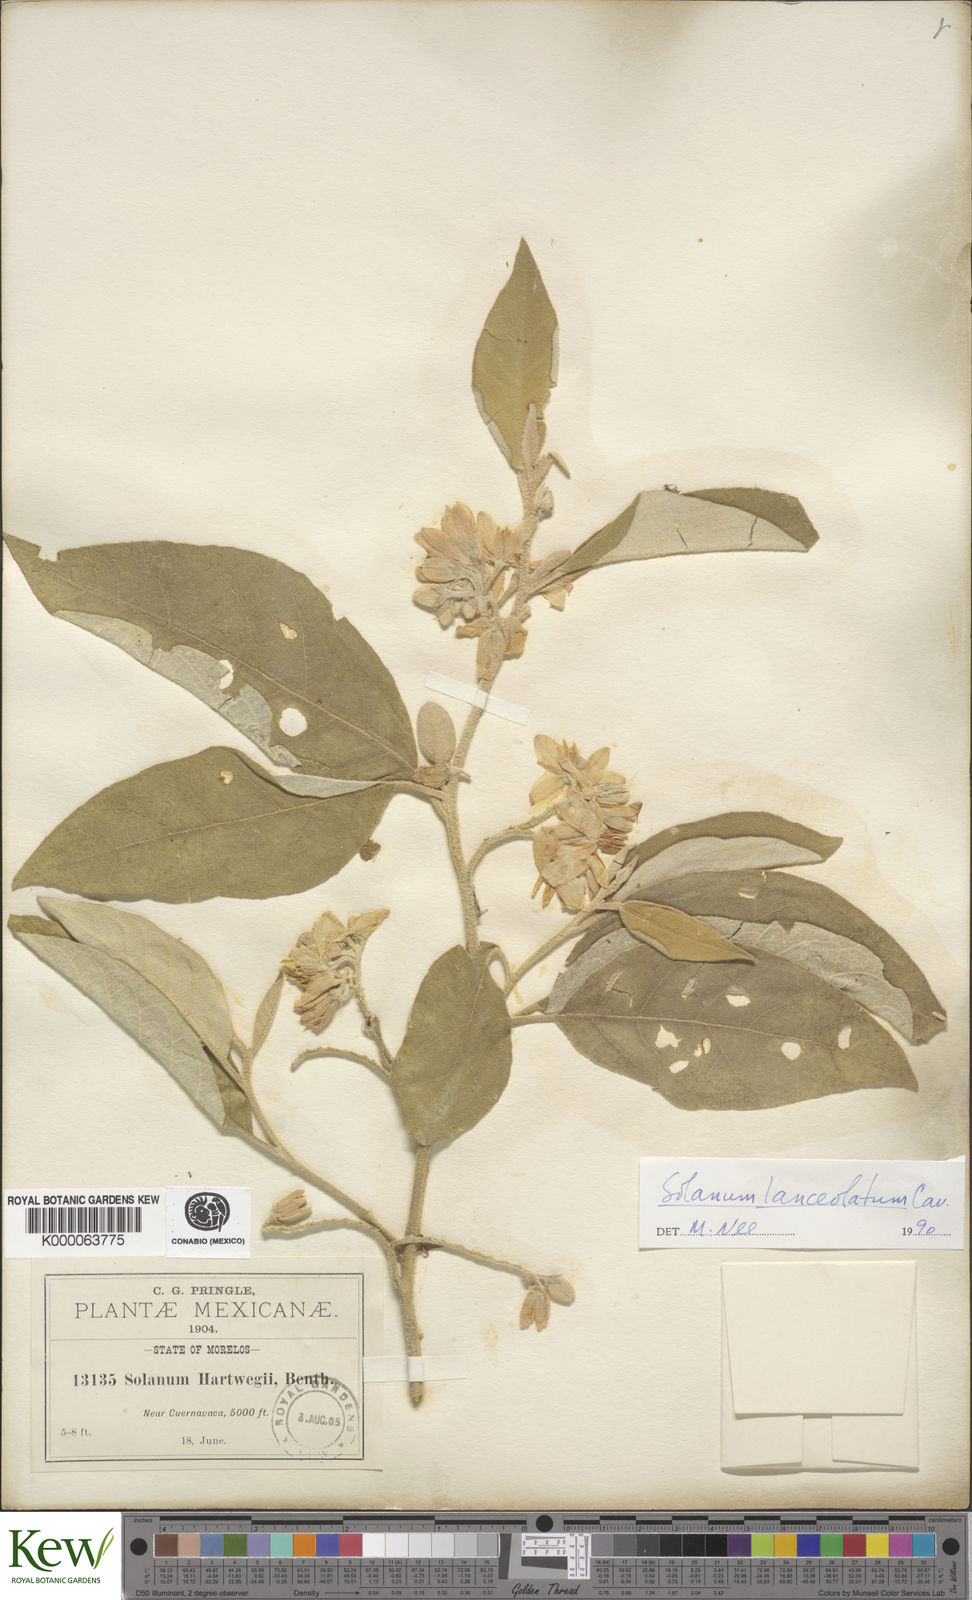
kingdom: Plantae
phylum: Tracheophyta
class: Magnoliopsida
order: Solanales
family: Solanaceae
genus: Solanum
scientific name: Solanum lanceolatum
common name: Orangeberry nightshade
